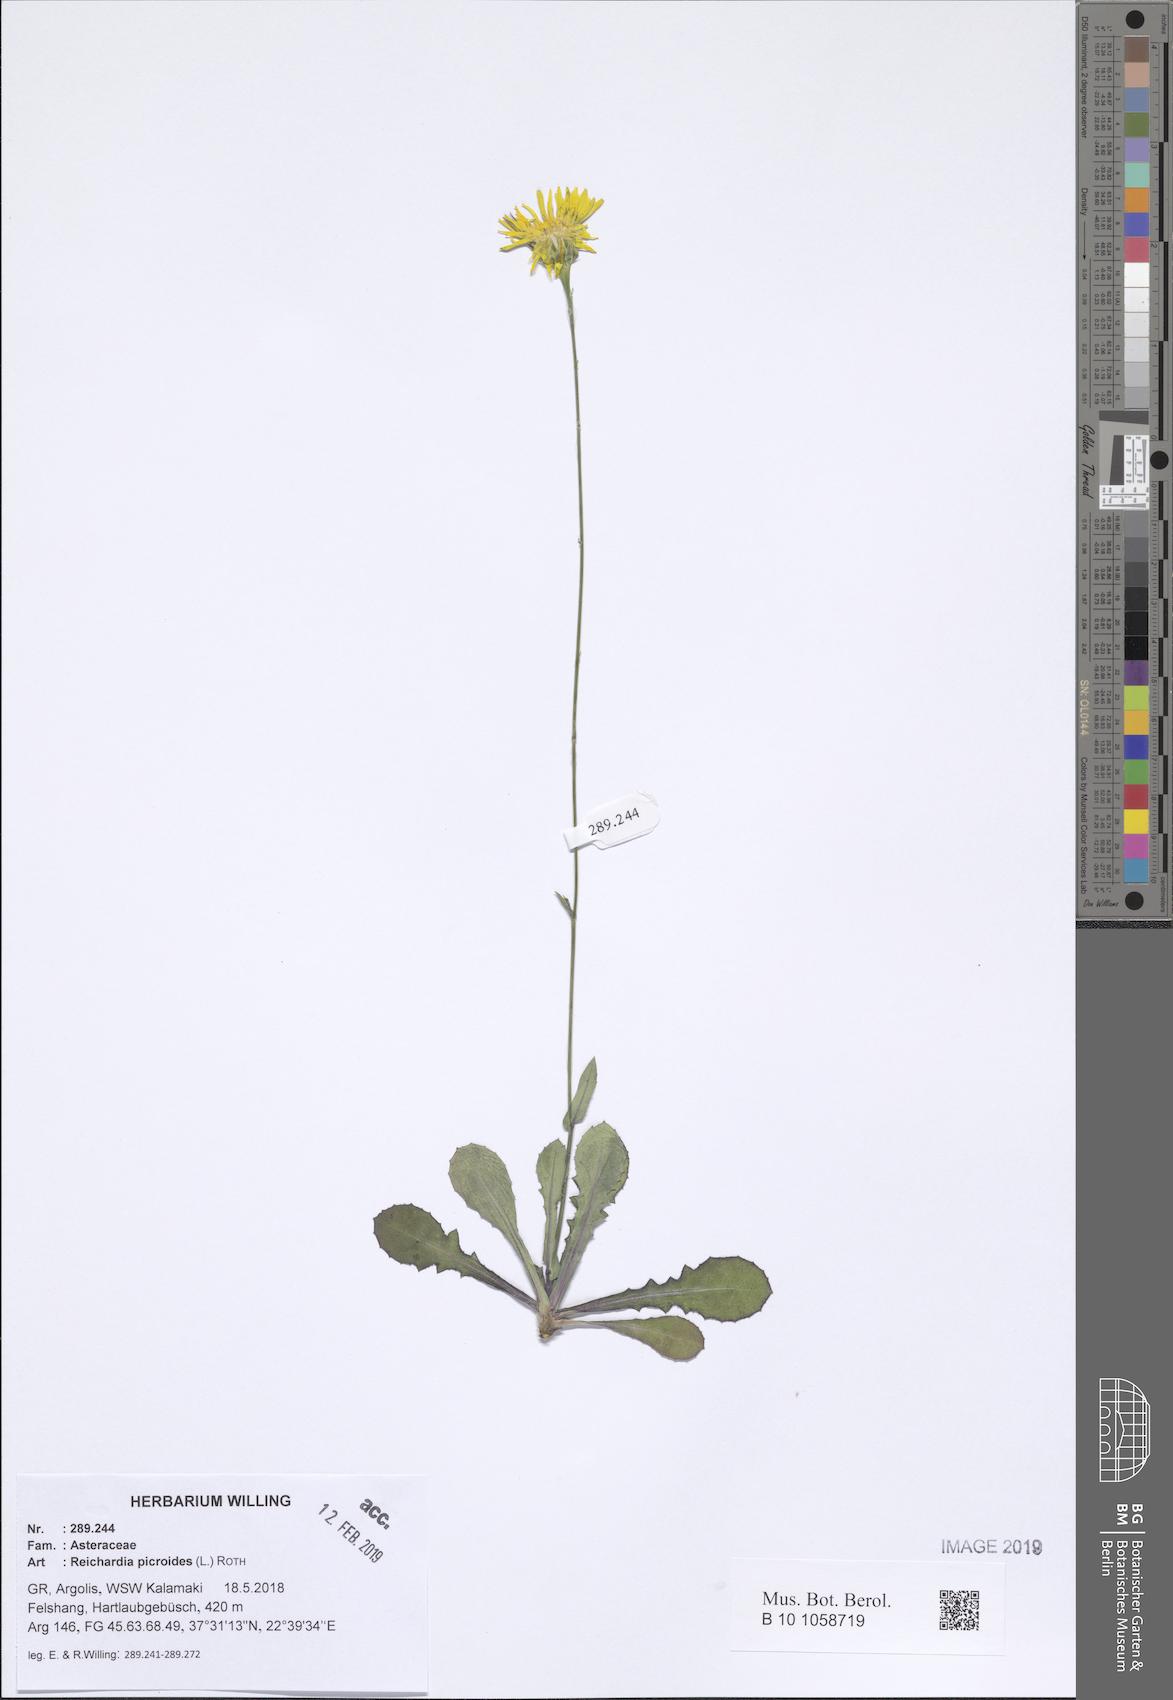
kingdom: Plantae
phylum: Tracheophyta
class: Magnoliopsida
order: Asterales
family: Asteraceae
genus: Reichardia
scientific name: Reichardia picroides
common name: Common brighteyes
